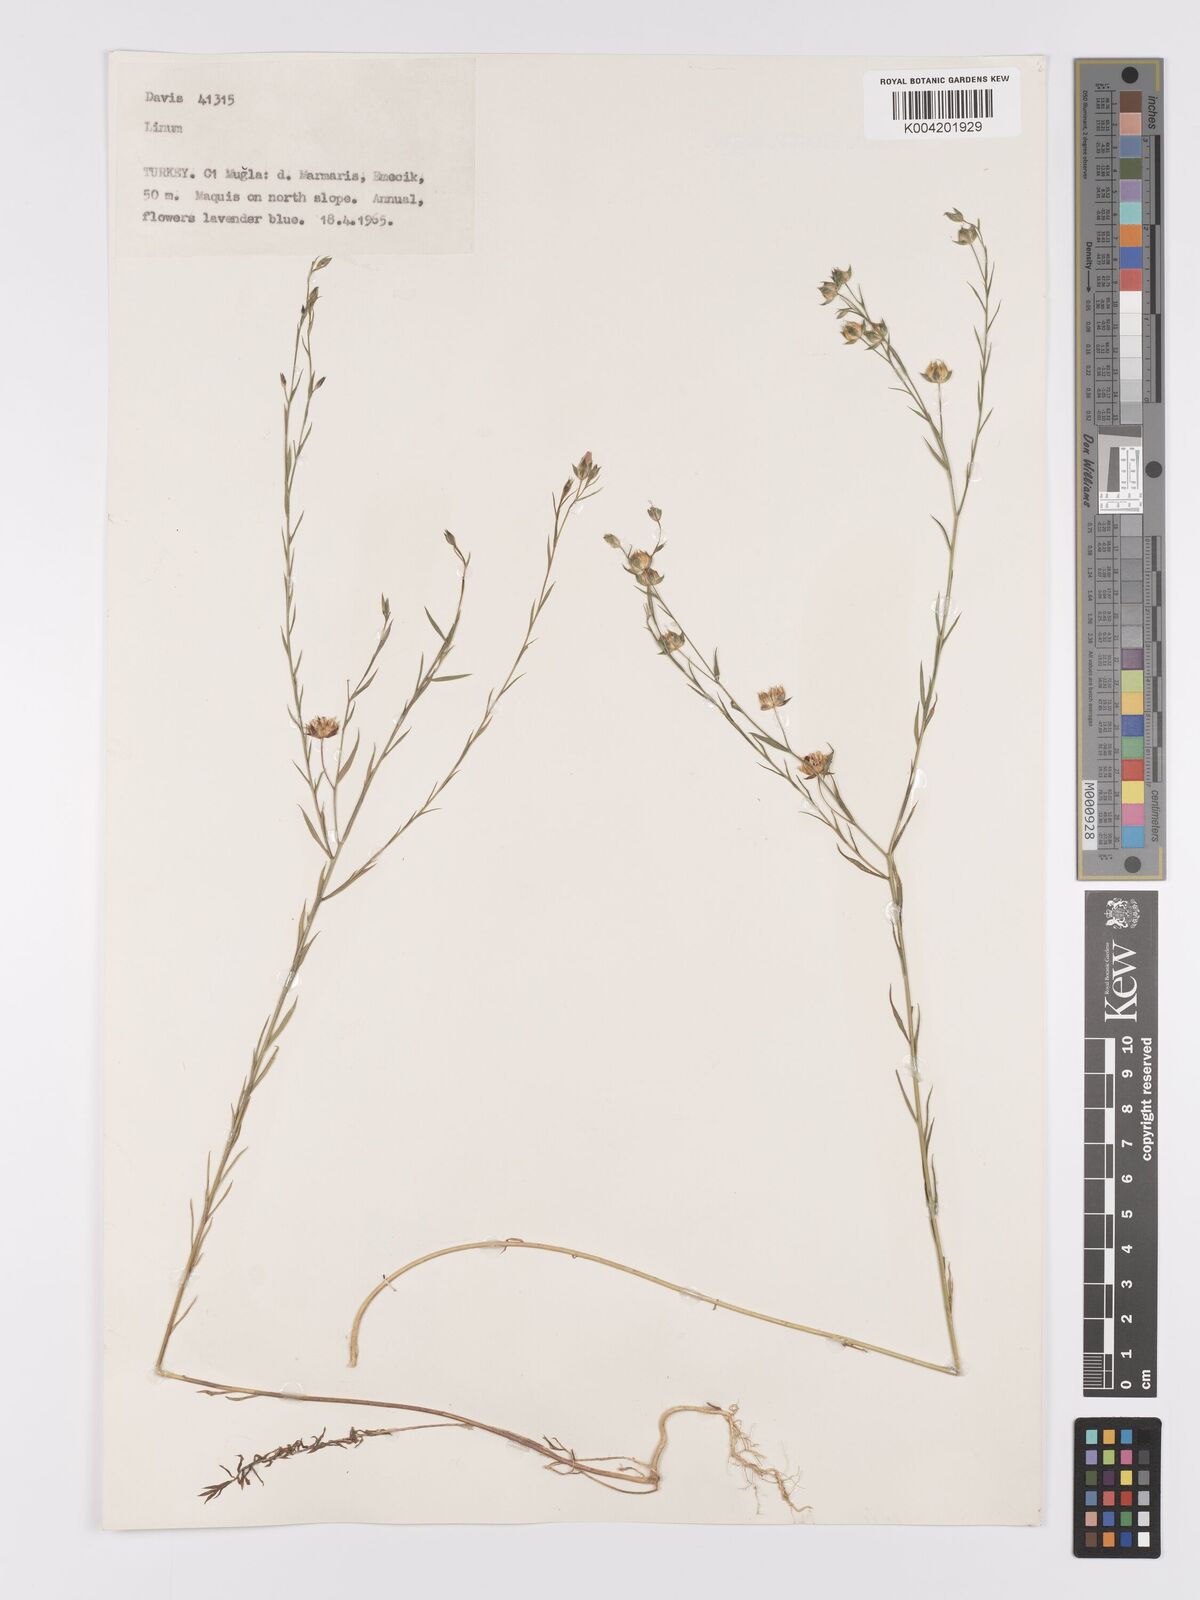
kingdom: Plantae
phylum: Tracheophyta
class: Magnoliopsida
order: Malpighiales
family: Linaceae
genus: Linum
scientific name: Linum
